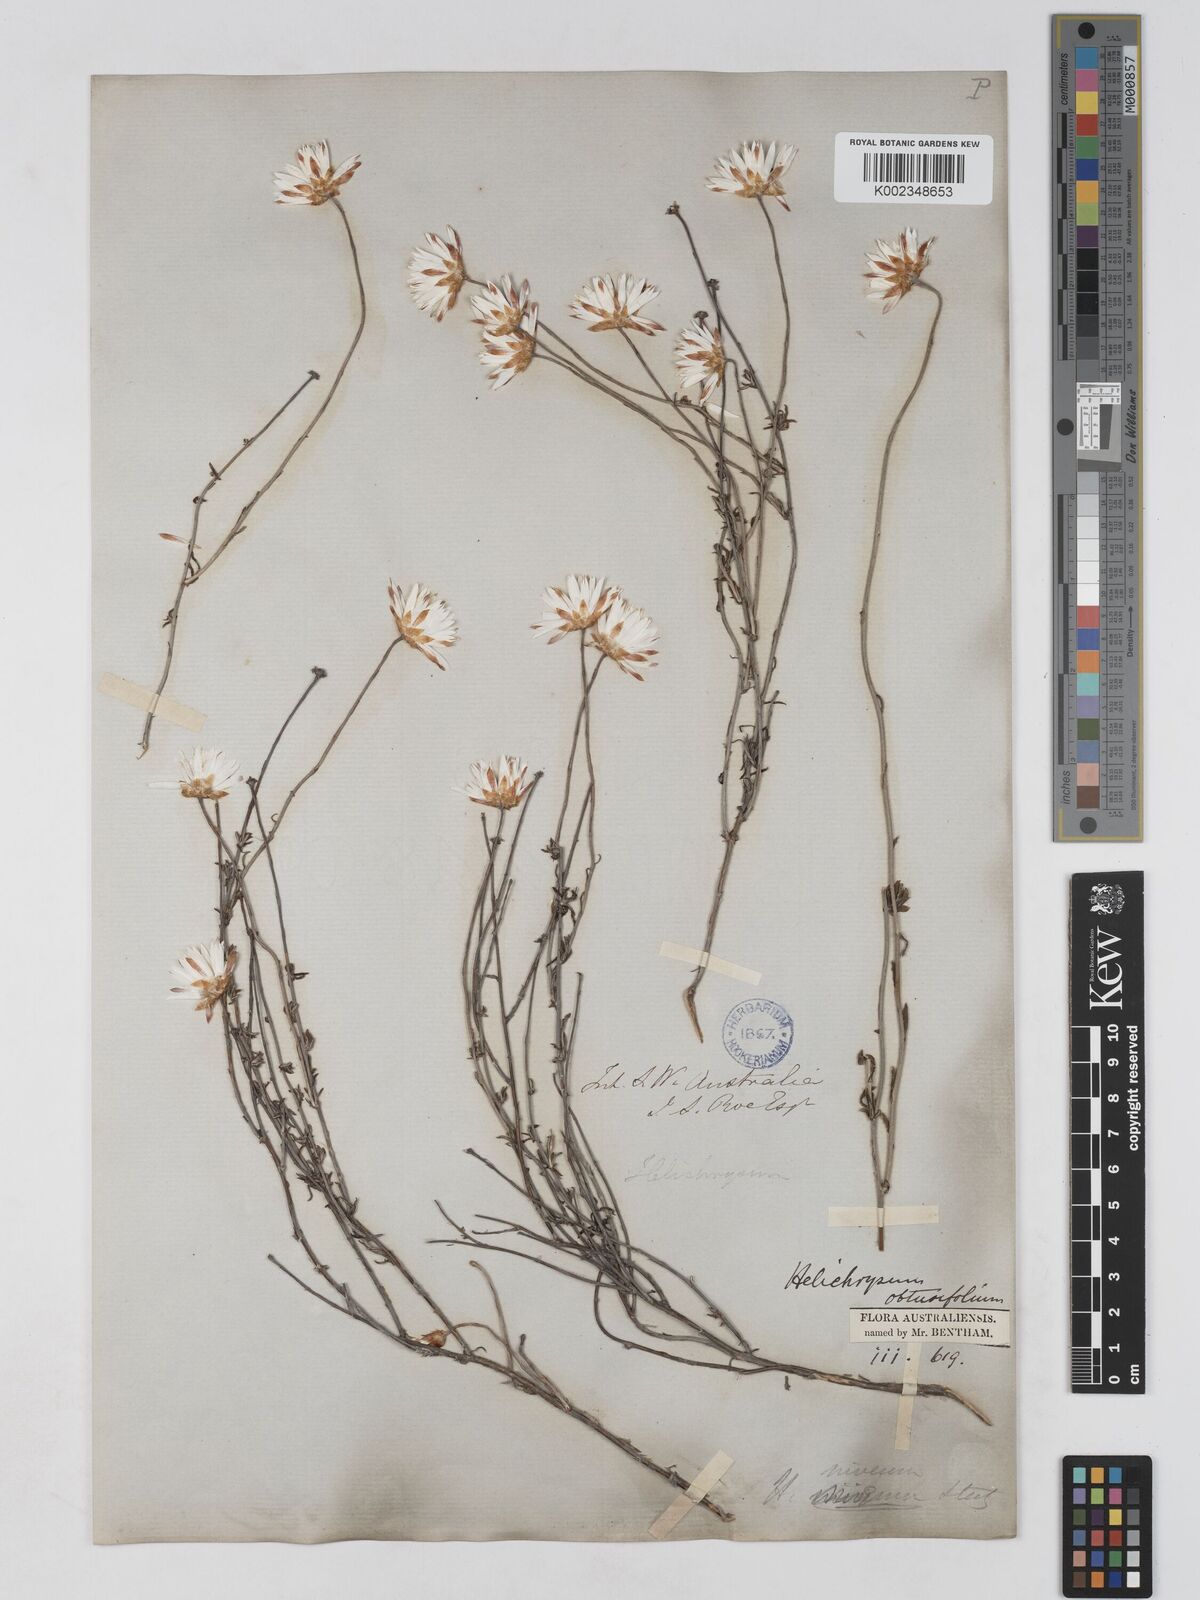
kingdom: Plantae
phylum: Tracheophyta
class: Magnoliopsida
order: Asterales
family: Asteraceae
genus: Argentipallium
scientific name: Argentipallium obtusifolium
